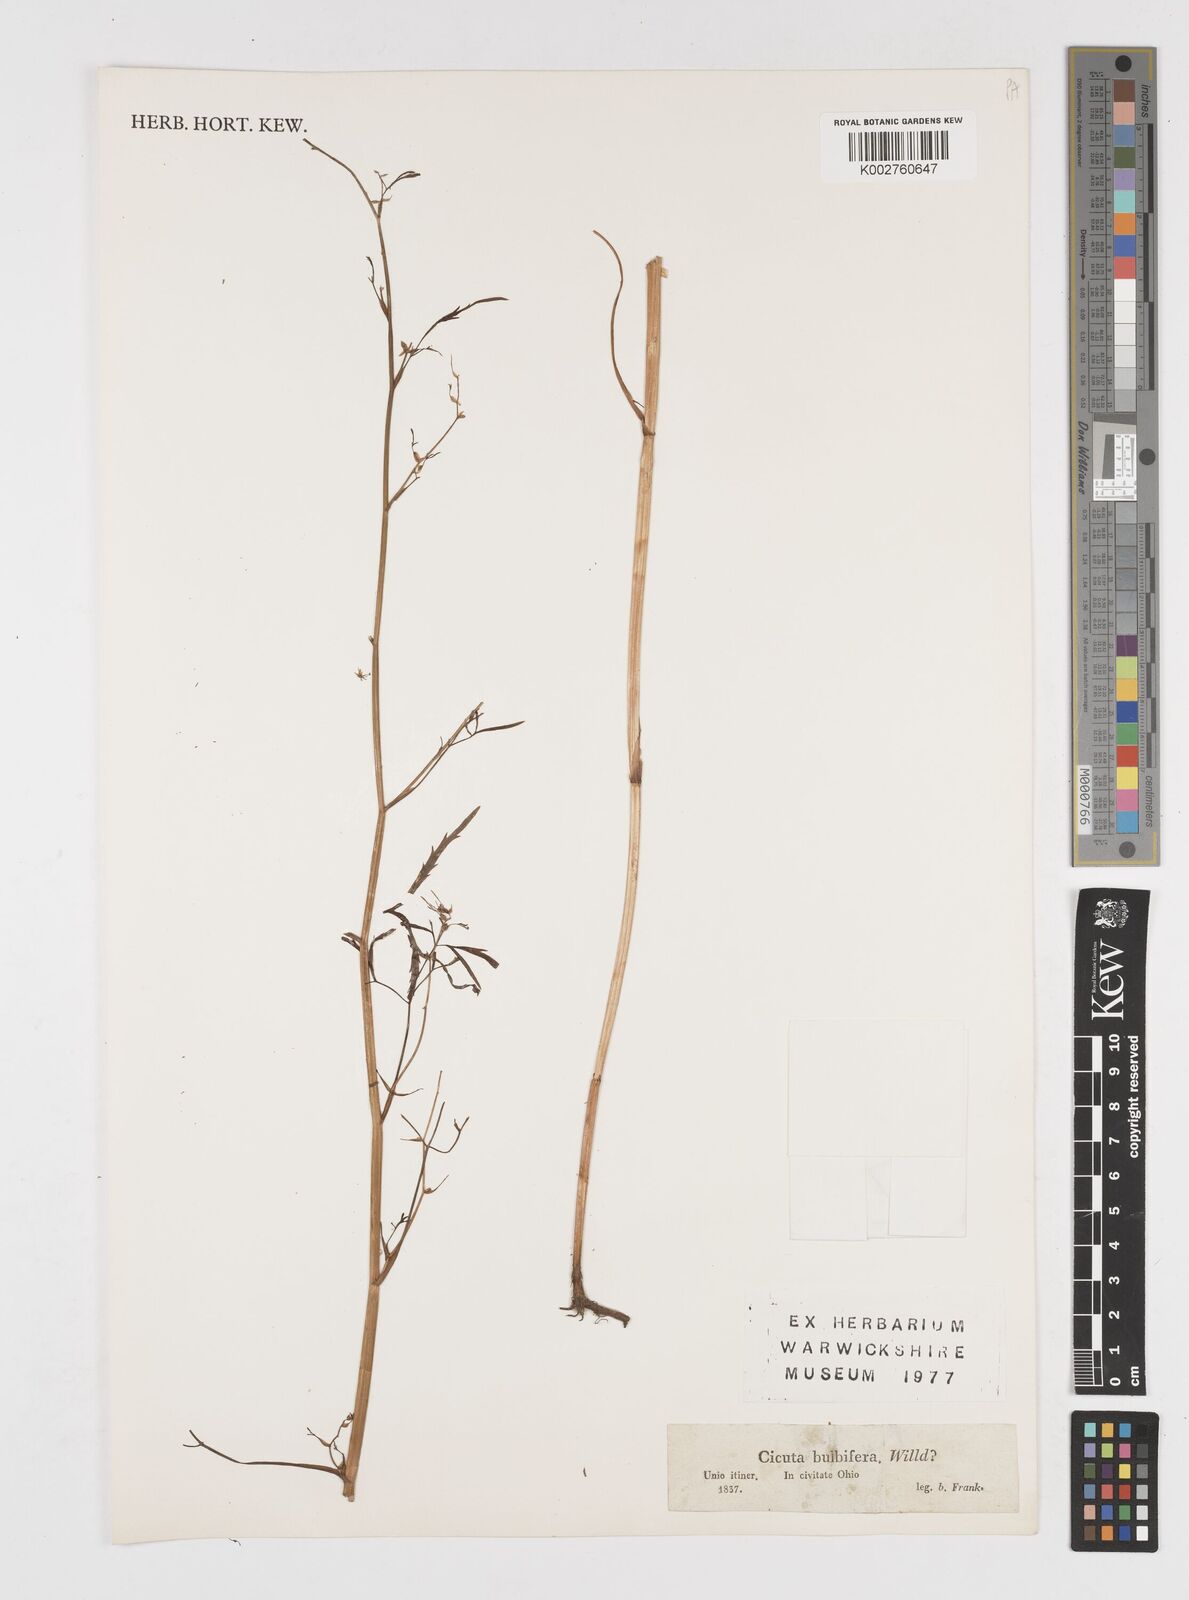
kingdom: Plantae
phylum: Tracheophyta
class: Magnoliopsida
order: Apiales
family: Apiaceae
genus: Cicuta
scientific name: Cicuta bulbifera
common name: Bulb-bearing water-hemlock
